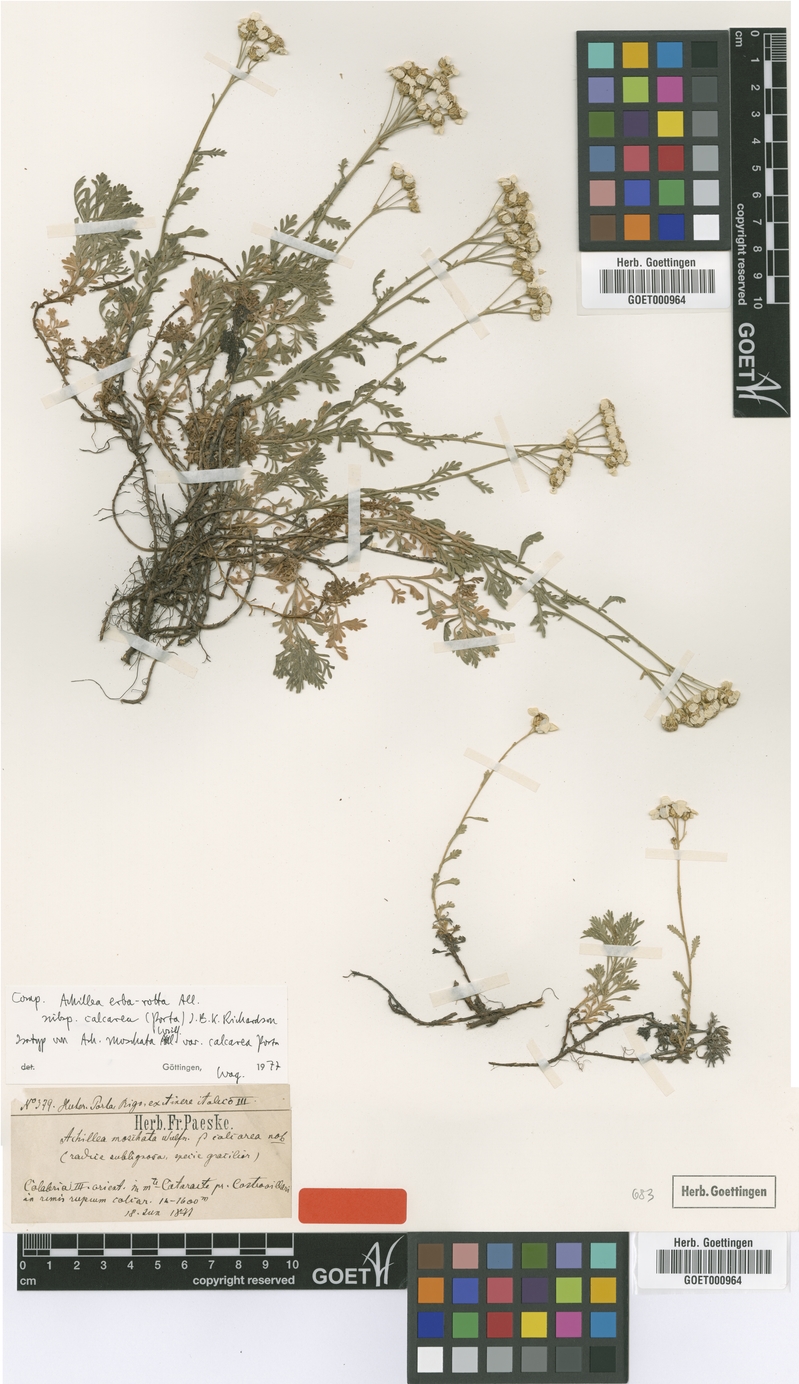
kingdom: Plantae
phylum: Tracheophyta
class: Magnoliopsida
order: Asterales
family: Asteraceae
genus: Achillea
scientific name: Achillea rupestris
